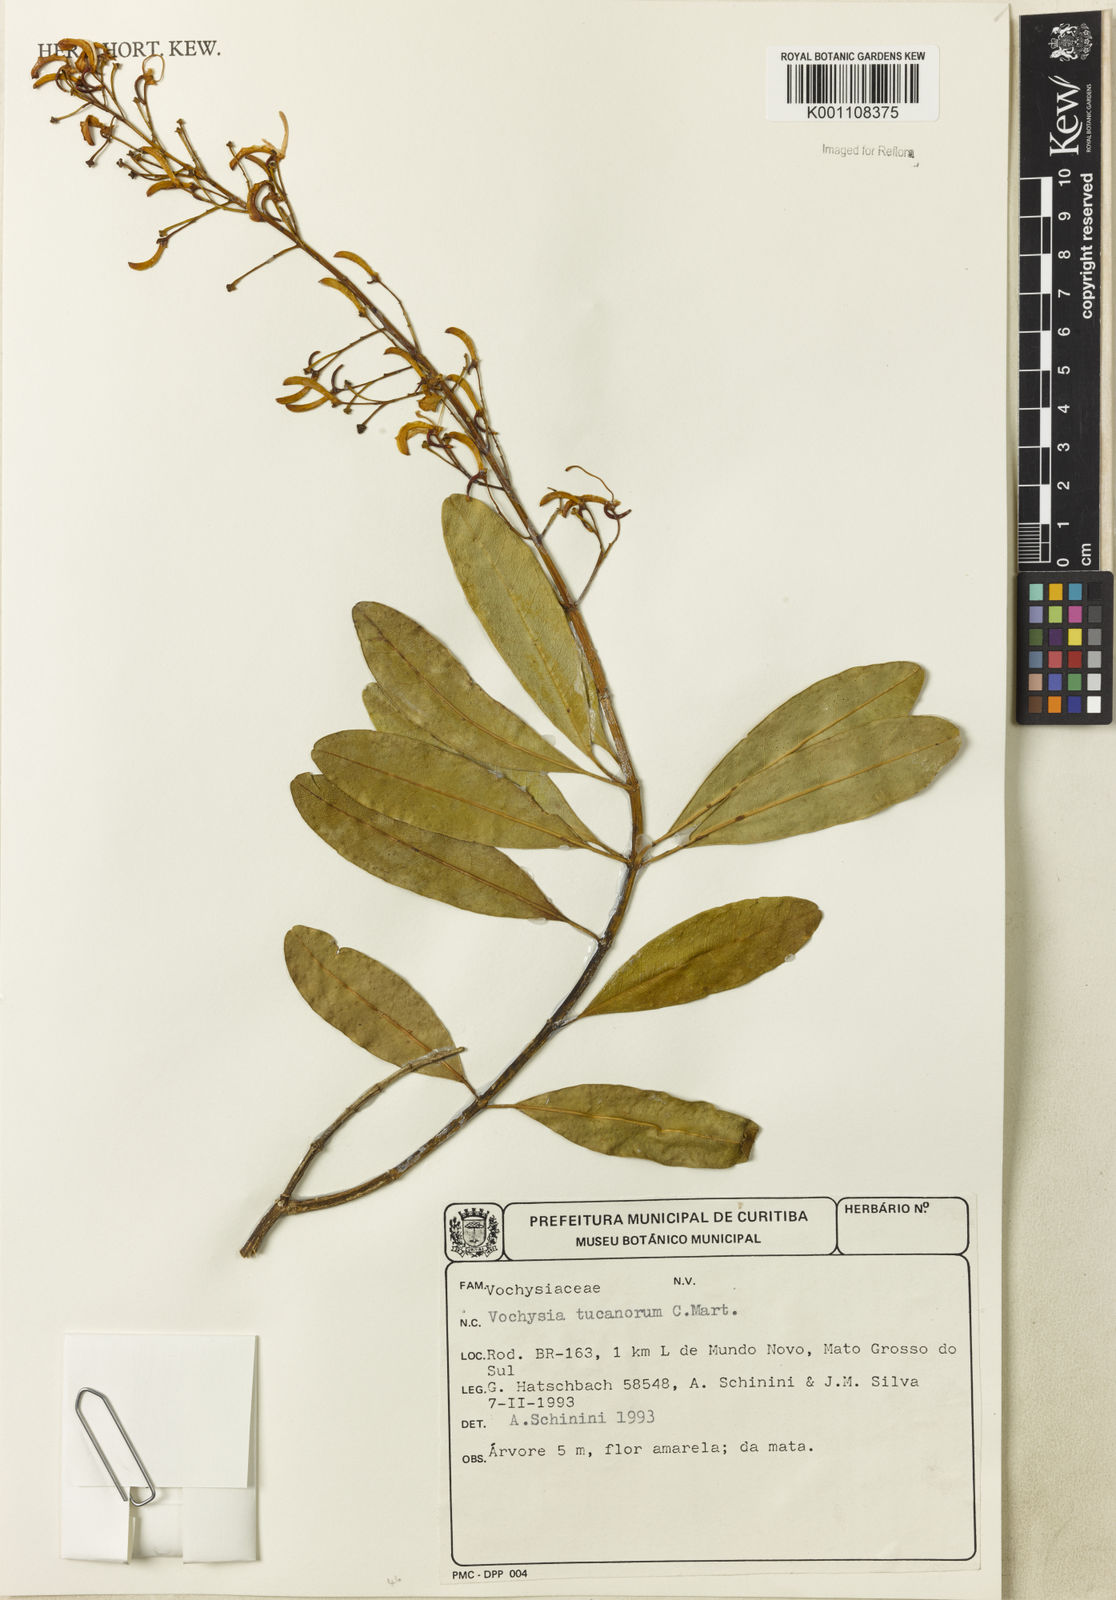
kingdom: Plantae
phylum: Tracheophyta
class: Magnoliopsida
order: Myrtales
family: Vochysiaceae
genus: Vochysia
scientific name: Vochysia tucanorum
